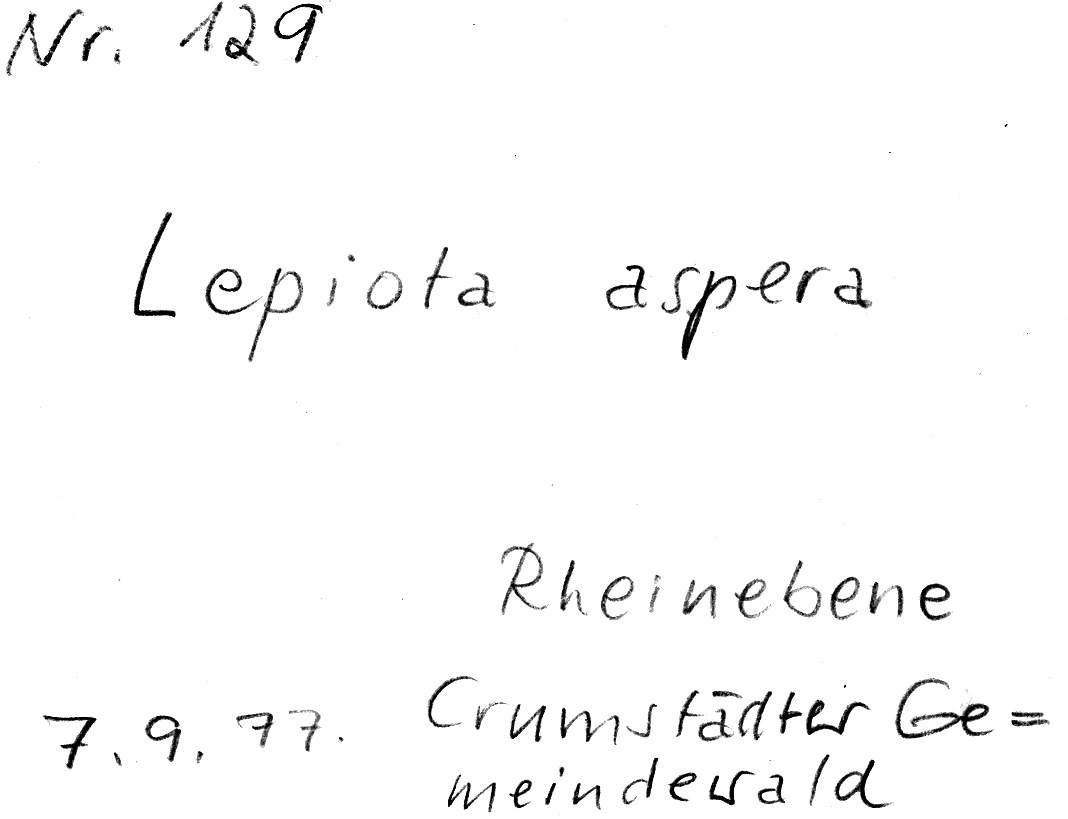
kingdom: Fungi
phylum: Basidiomycota
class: Agaricomycetes
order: Agaricales
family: Agaricaceae
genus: Echinoderma
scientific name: Echinoderma asperum
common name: Freckled dapperling
